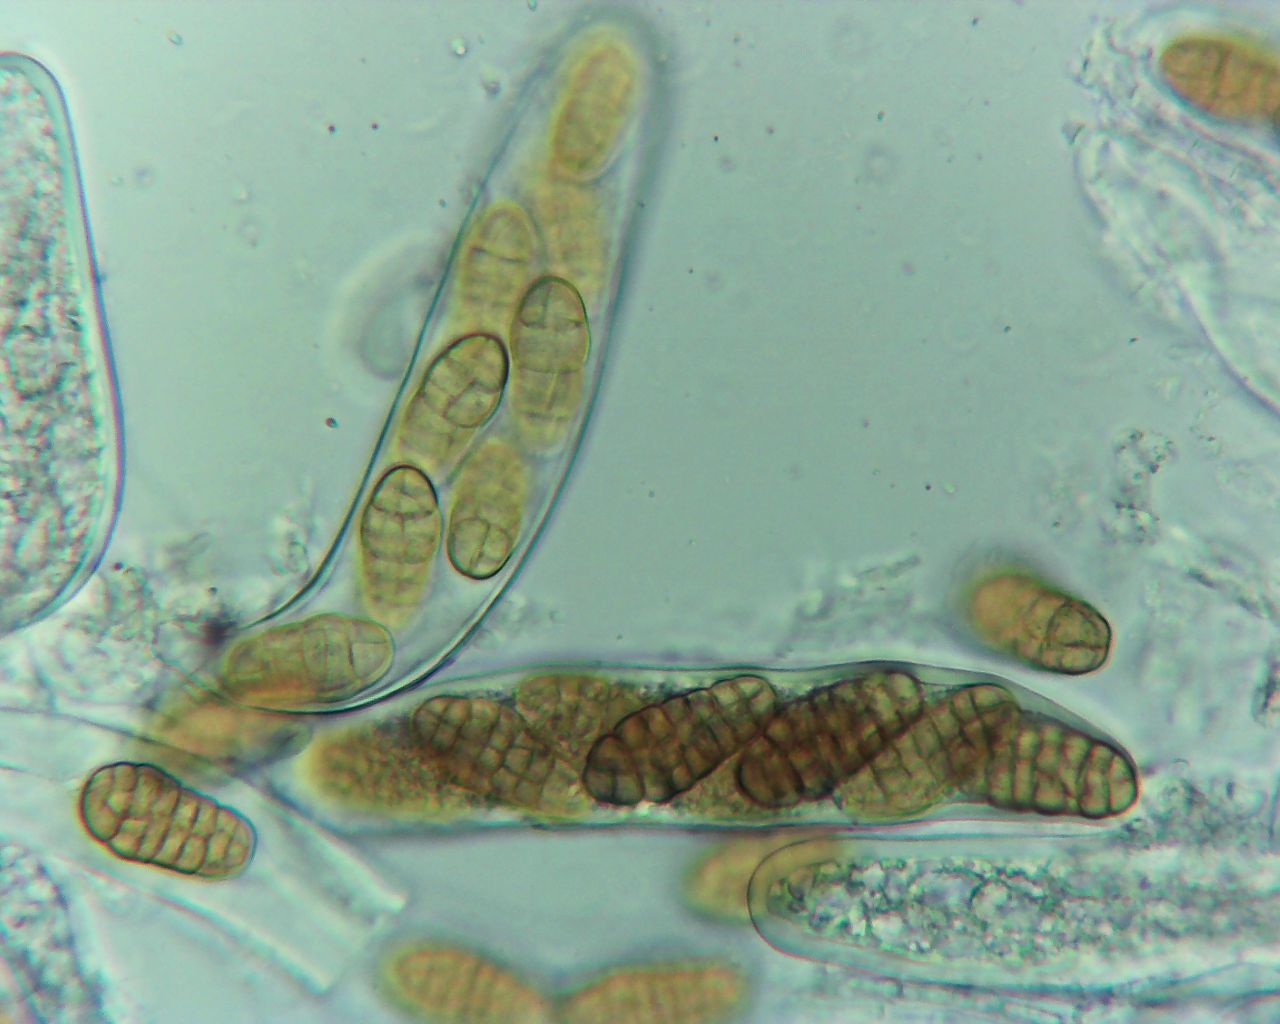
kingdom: Fungi
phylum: Ascomycota
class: Dothideomycetes
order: Pleosporales
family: Pleosporaceae
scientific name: Pleosporaceae
